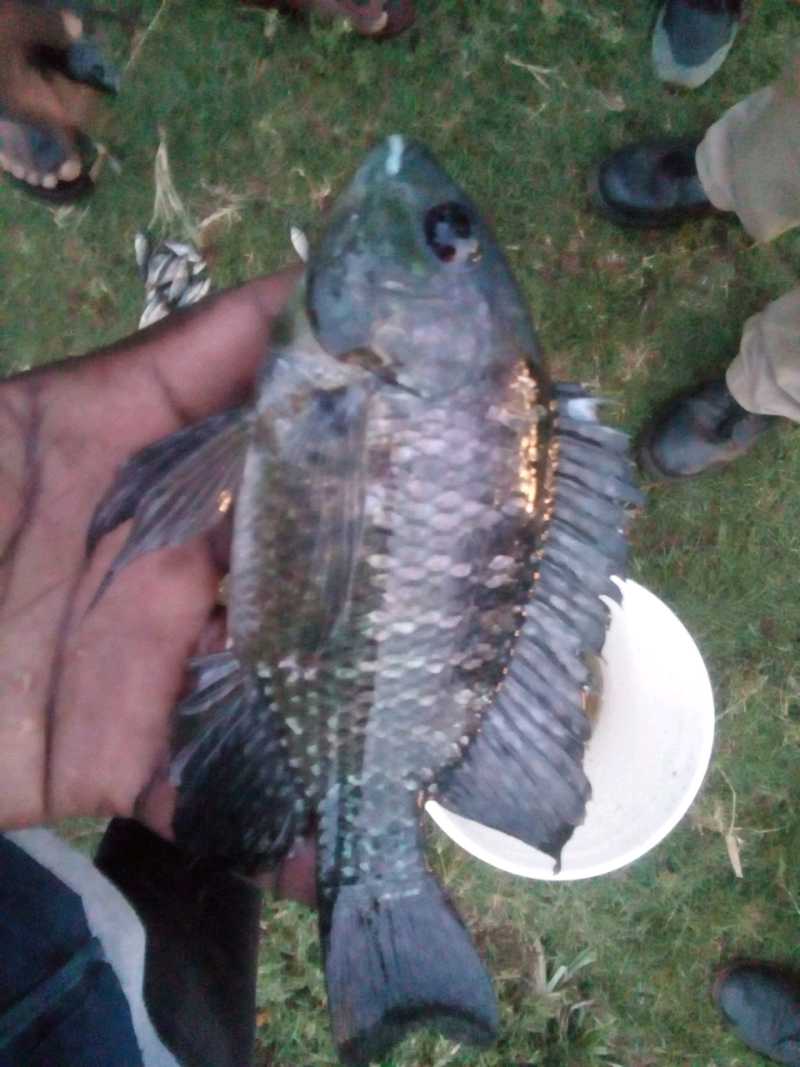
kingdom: Animalia
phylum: Chordata
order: Perciformes
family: Cichlidae
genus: Oreochromis
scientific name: Oreochromis leucostictus
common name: Blue spotted tilapia
